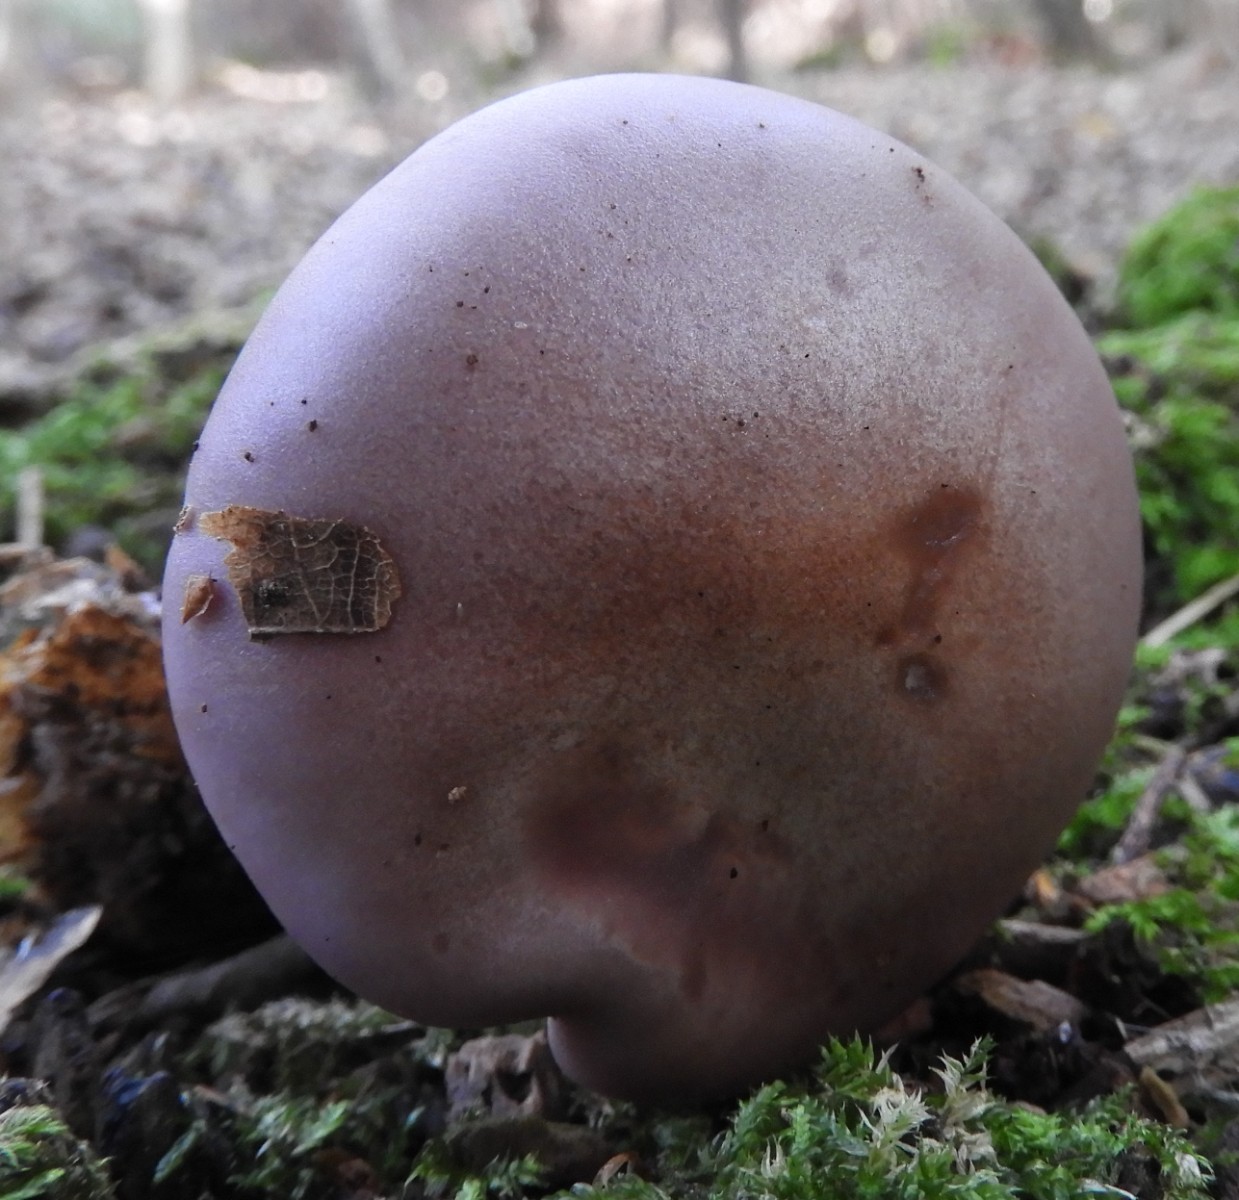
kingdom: Fungi
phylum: Basidiomycota
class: Agaricomycetes
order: Agaricales
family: Tricholomataceae
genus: Lepista
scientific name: Lepista nuda
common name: violet hekseringshat
